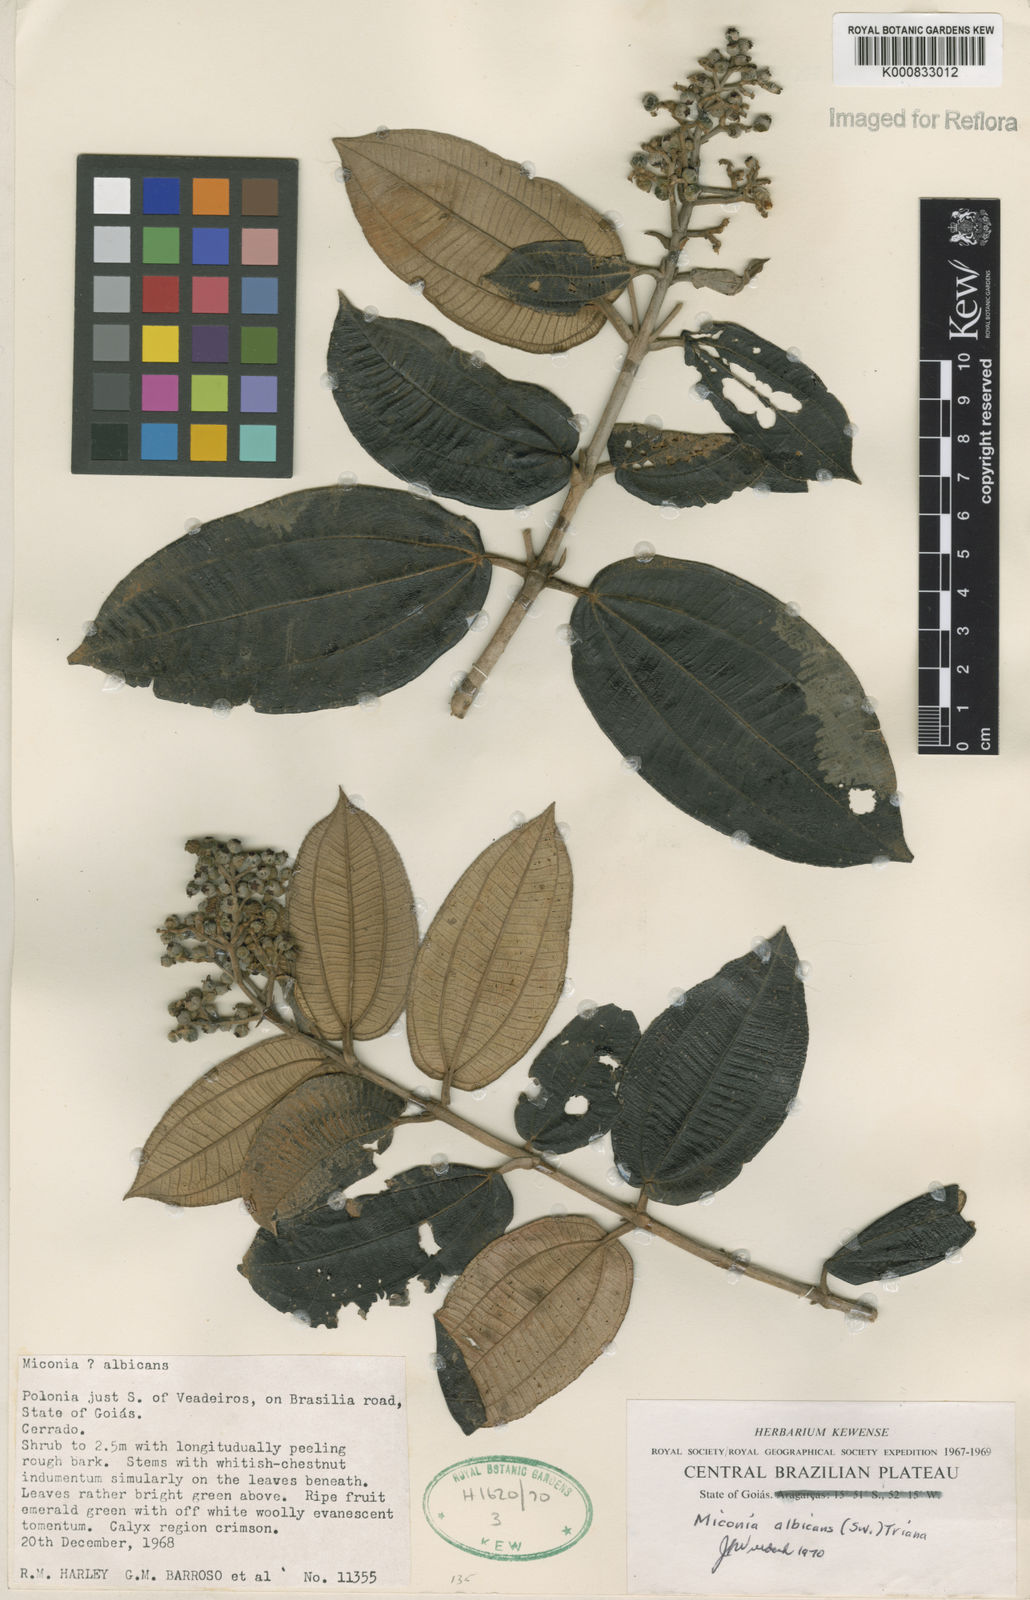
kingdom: Plantae
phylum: Tracheophyta
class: Magnoliopsida
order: Myrtales
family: Melastomataceae
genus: Miconia
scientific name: Miconia albicans
